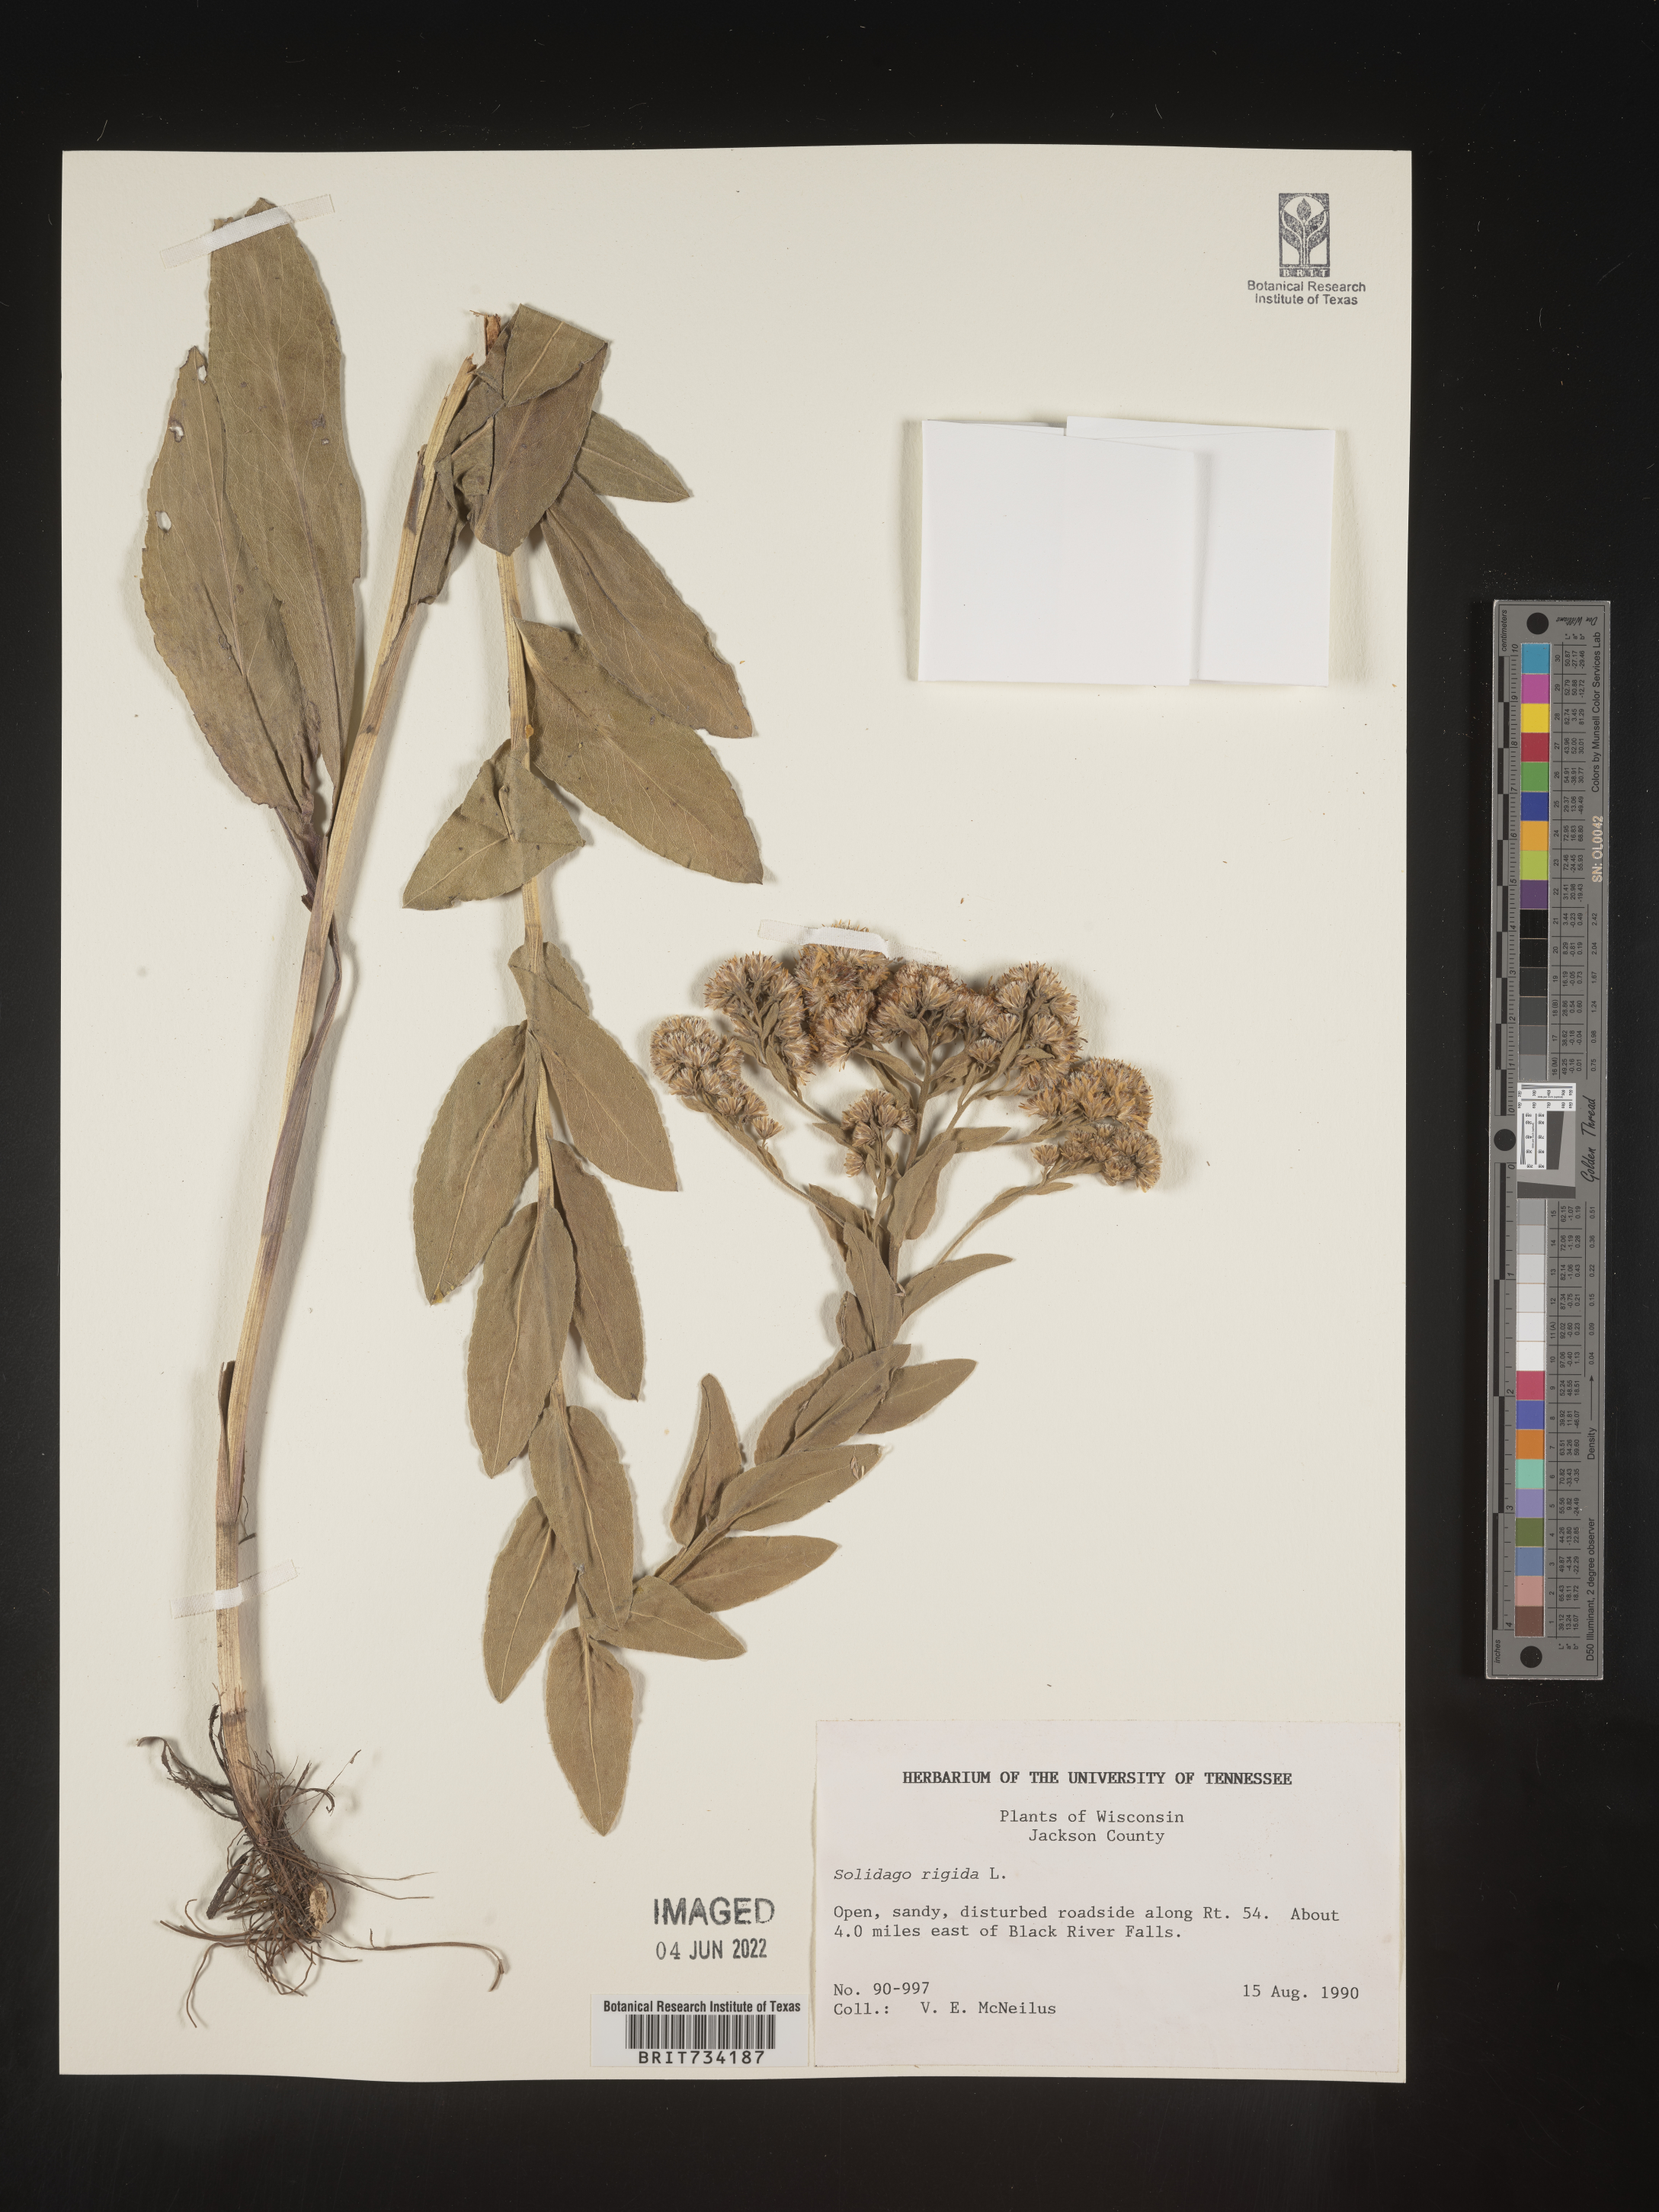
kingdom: Plantae
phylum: Tracheophyta
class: Magnoliopsida
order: Asterales
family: Asteraceae
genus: Solidago
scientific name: Solidago rigida
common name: Rigid goldenrod
